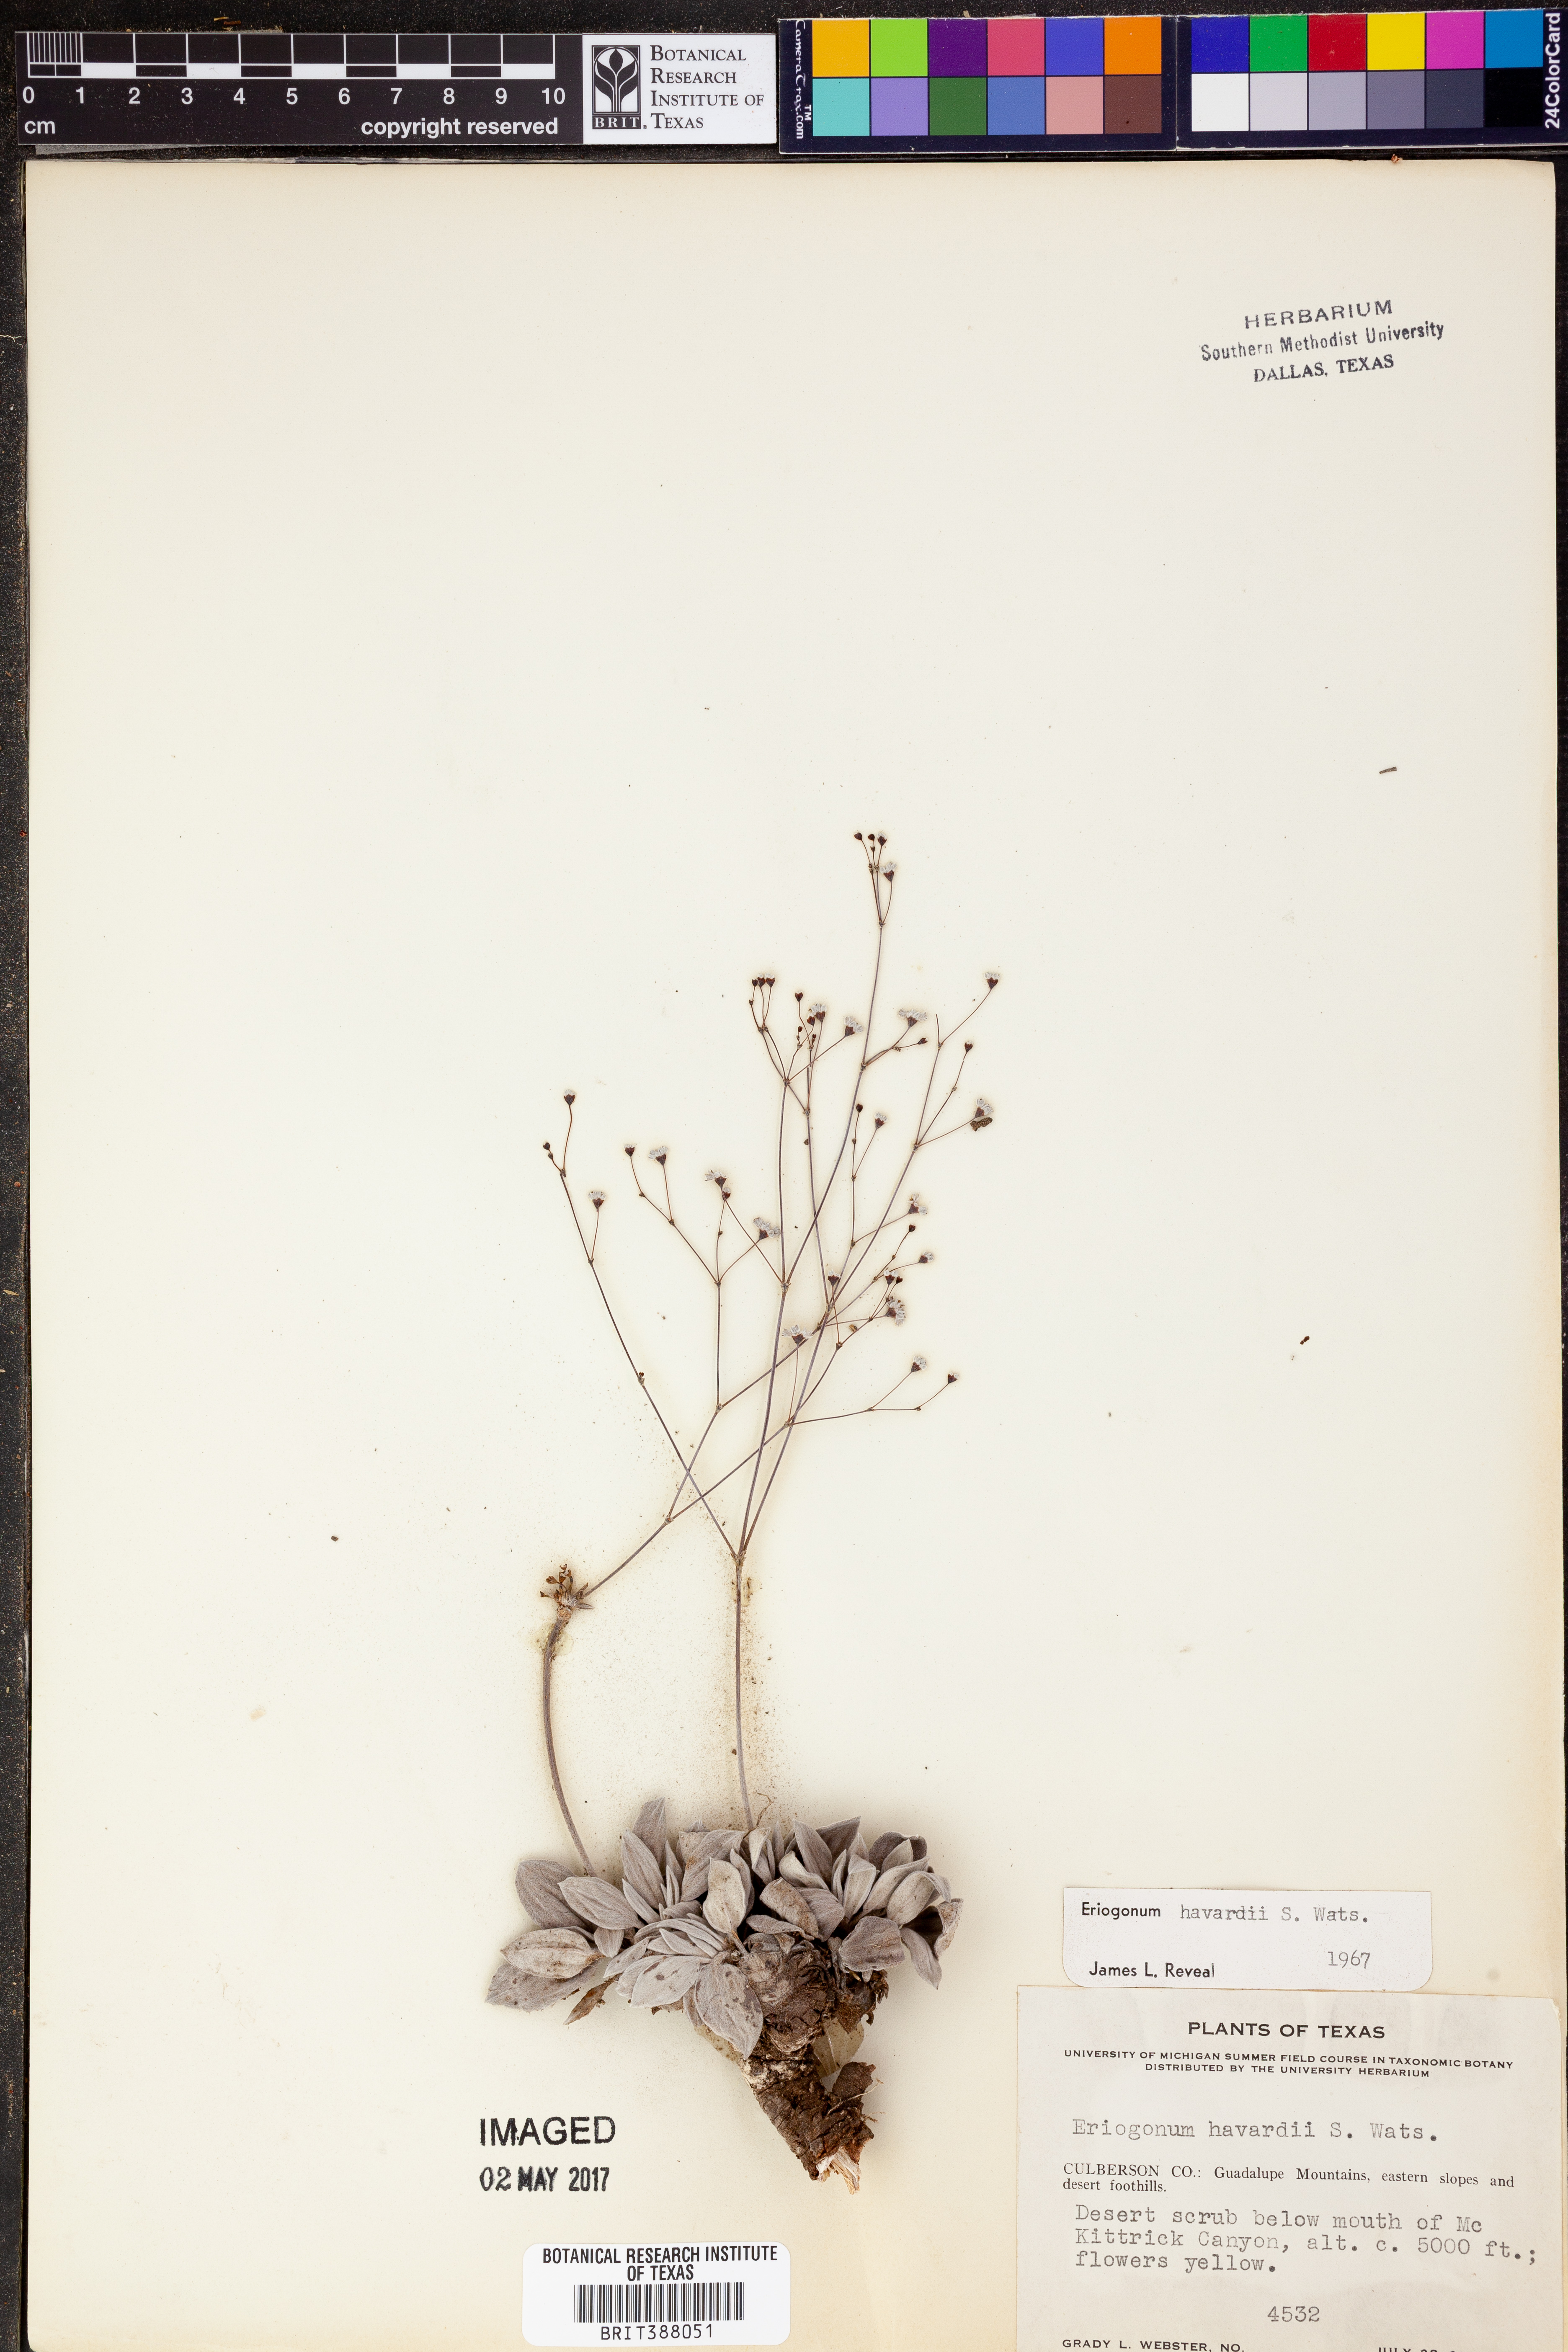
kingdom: Plantae
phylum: Tracheophyta
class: Magnoliopsida
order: Caryophyllales
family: Polygonaceae
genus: Eriogonum
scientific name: Eriogonum havardii
